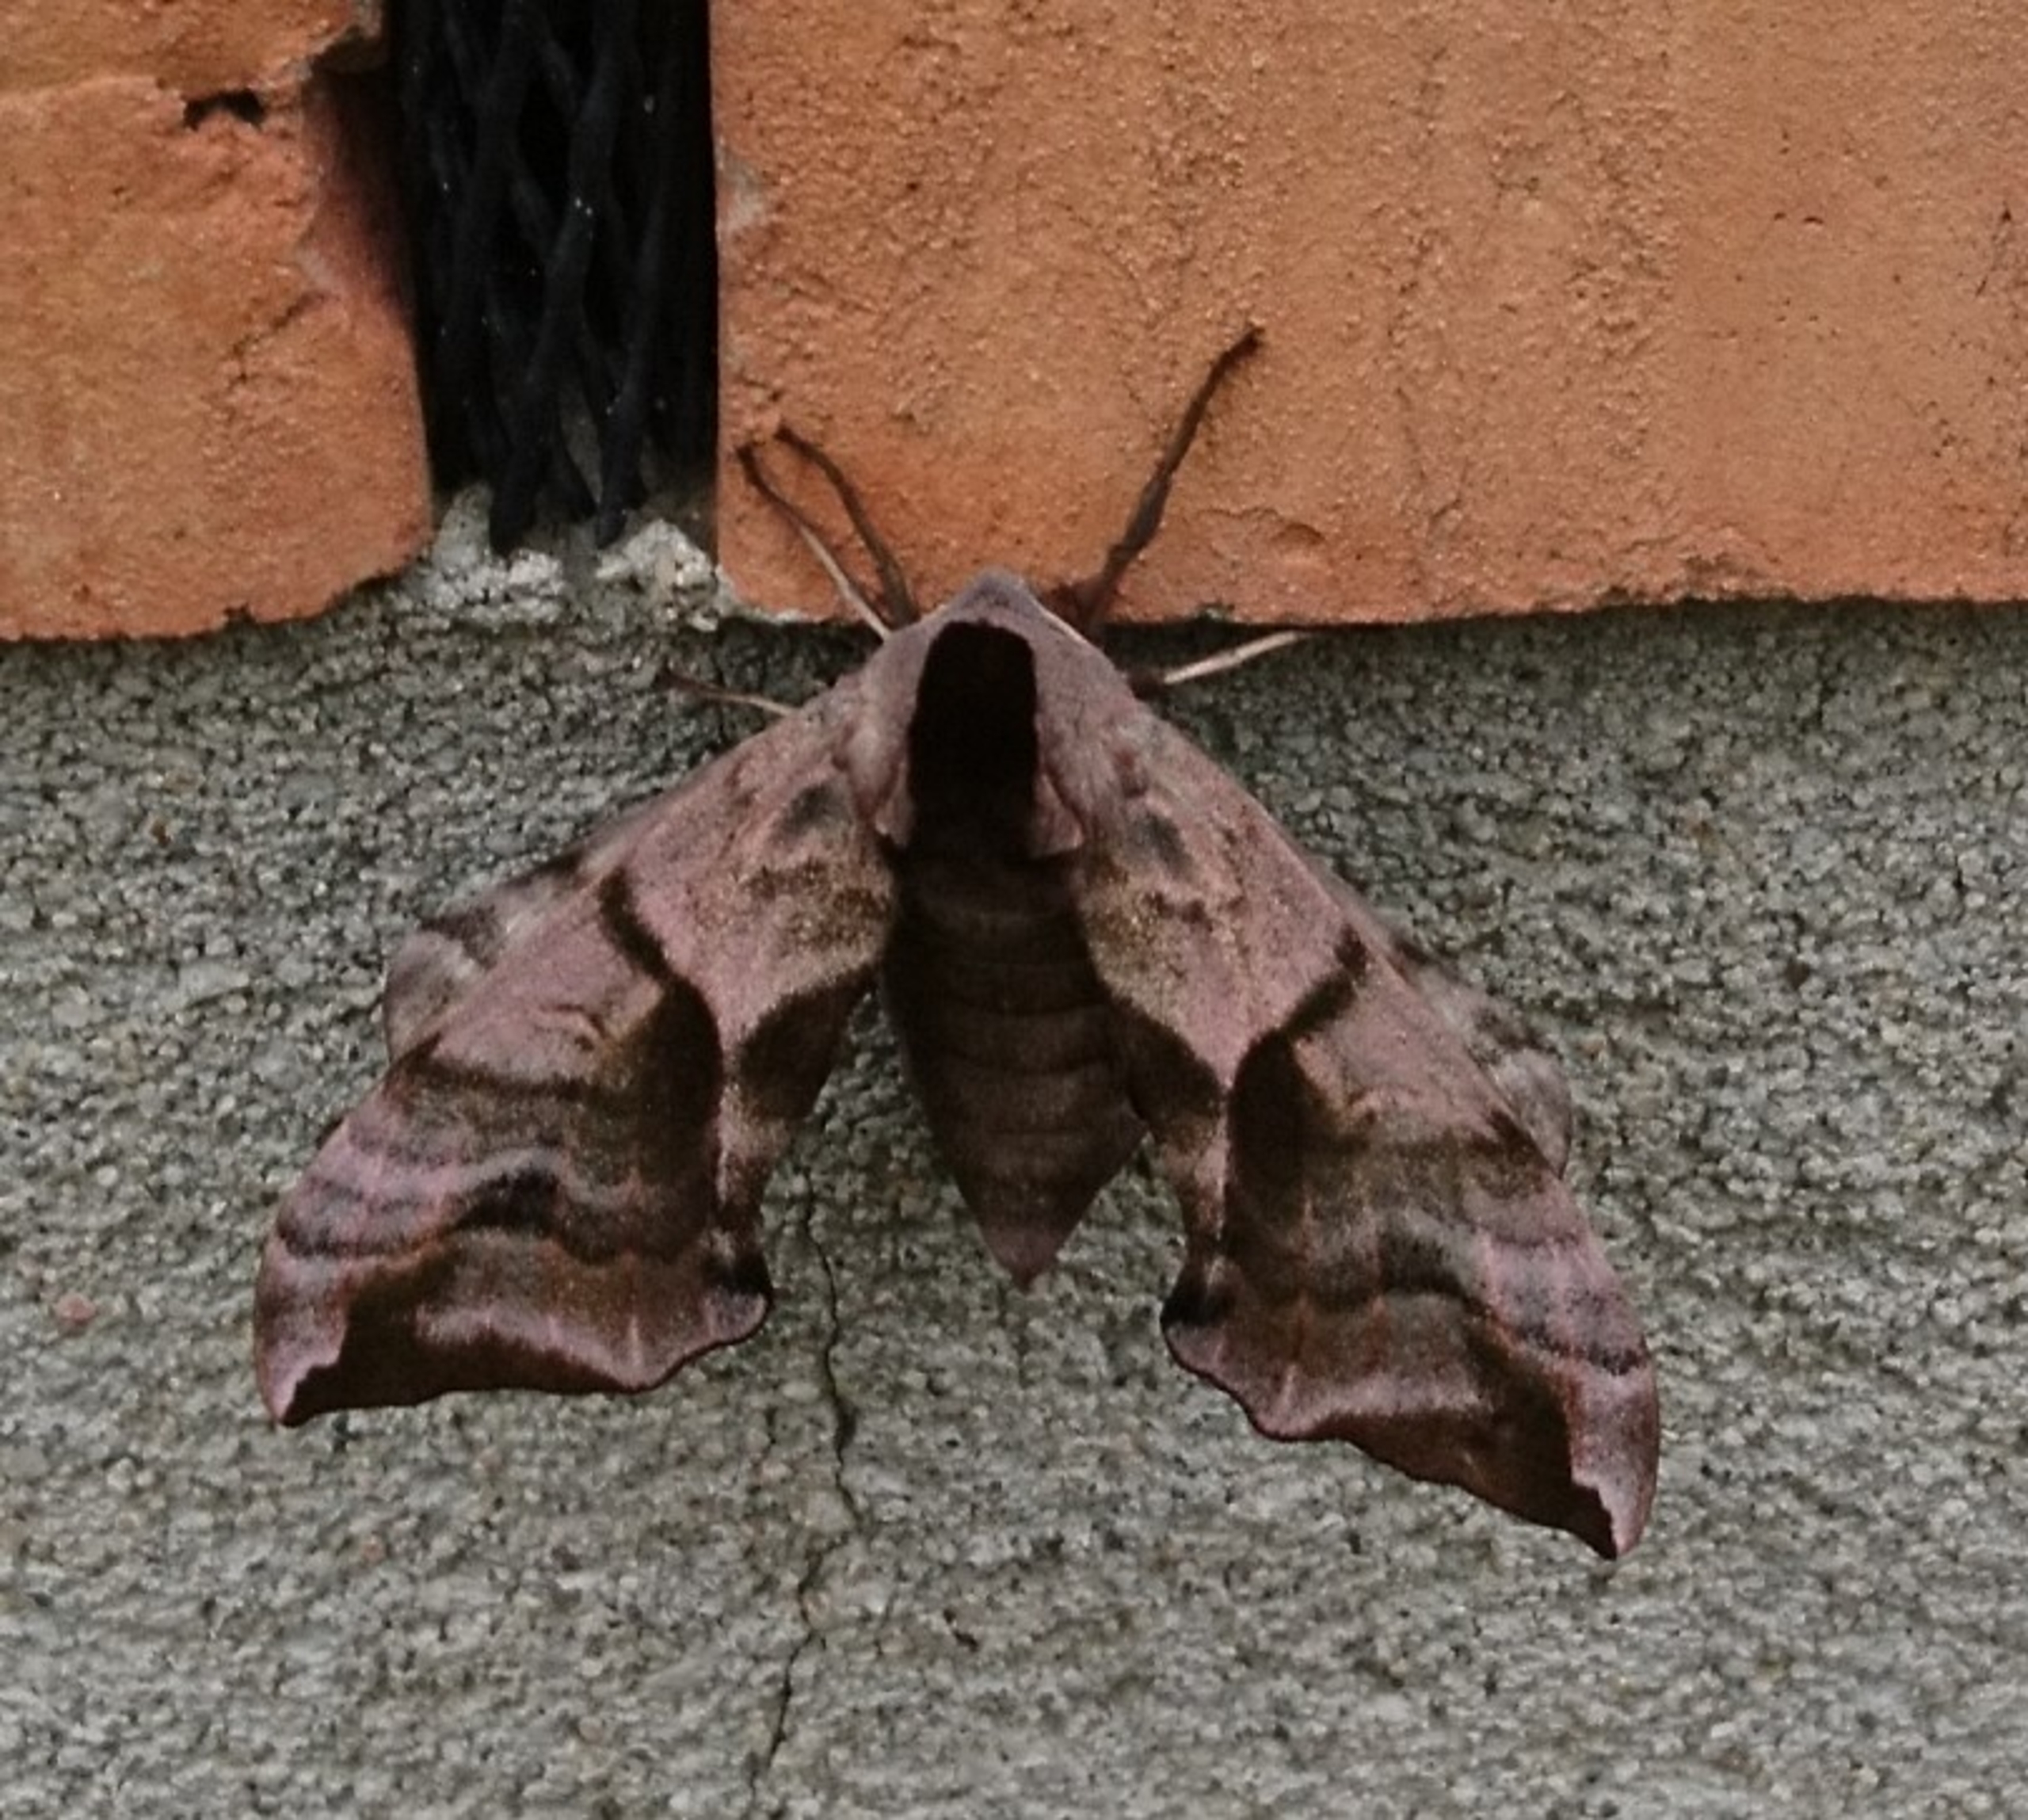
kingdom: Animalia
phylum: Arthropoda
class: Insecta
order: Lepidoptera
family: Sphingidae
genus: Smerinthus
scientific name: Smerinthus ocellata
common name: Aftenpåfugleøje
